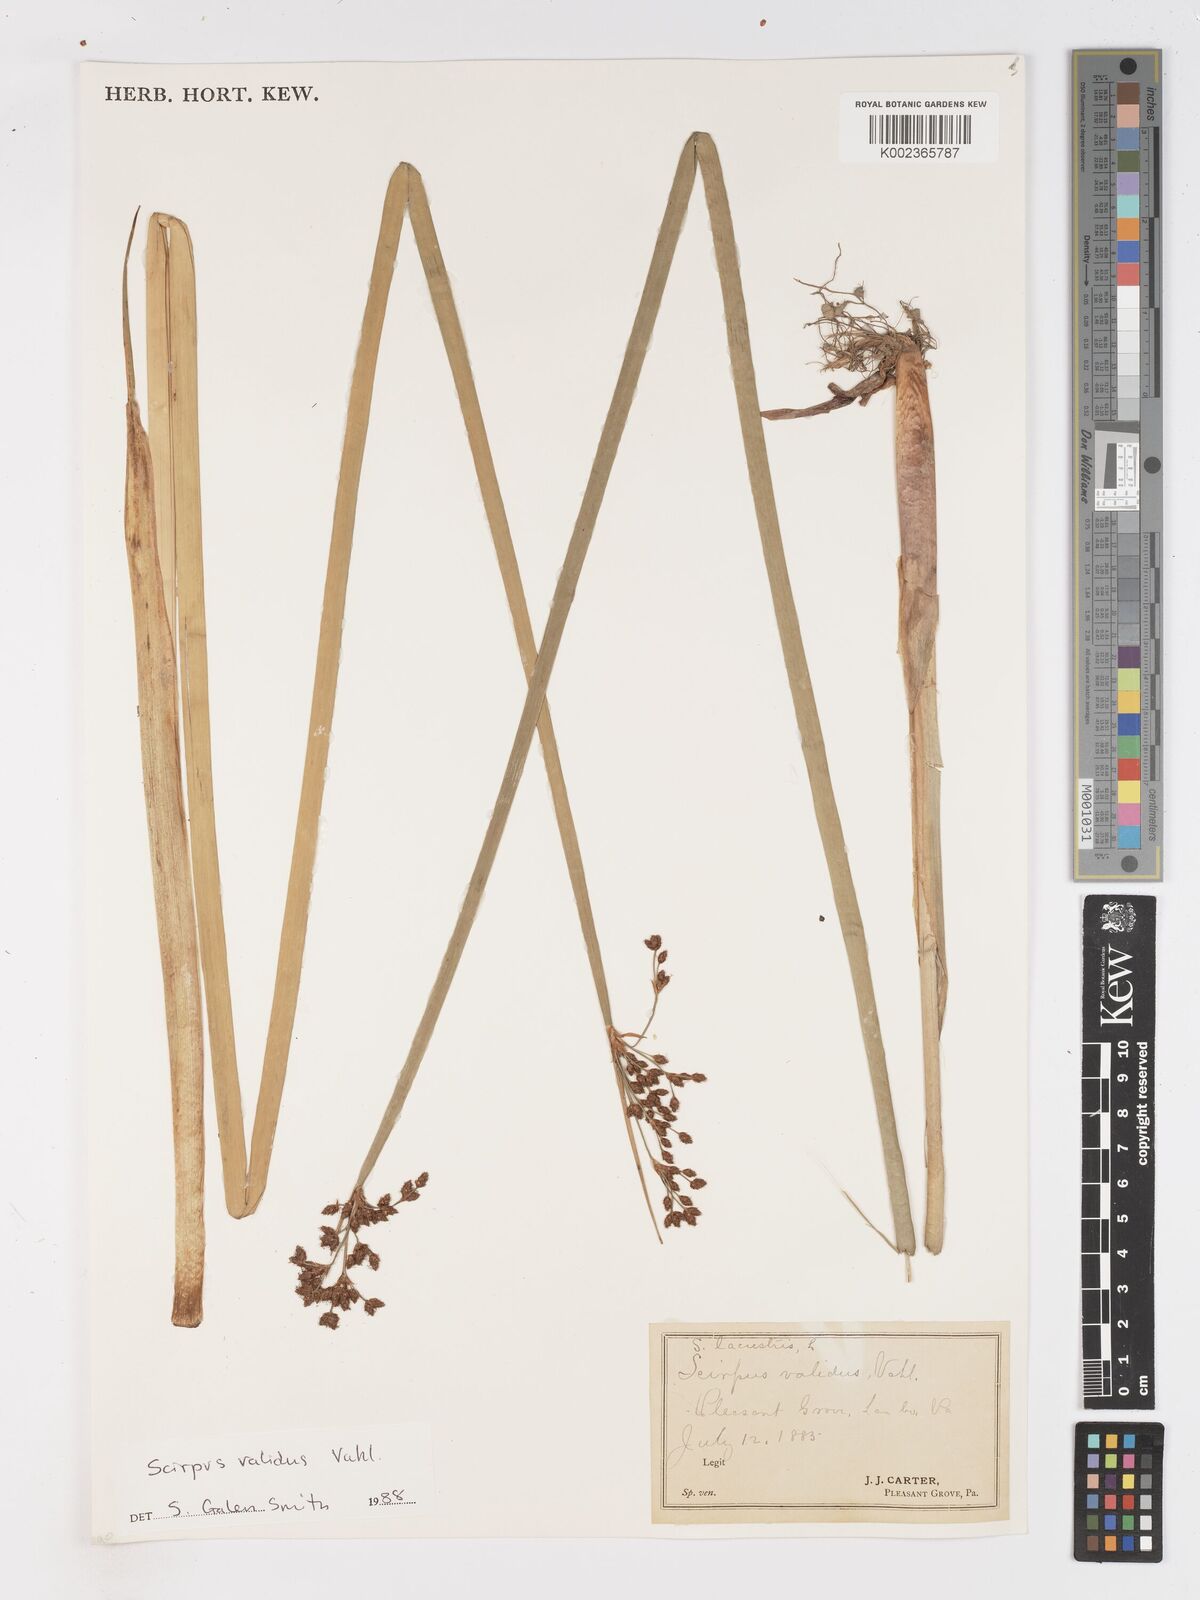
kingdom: Plantae
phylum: Tracheophyta
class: Liliopsida
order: Poales
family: Cyperaceae
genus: Schoenoplectus
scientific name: Schoenoplectus tabernaemontani
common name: Grey club-rush
